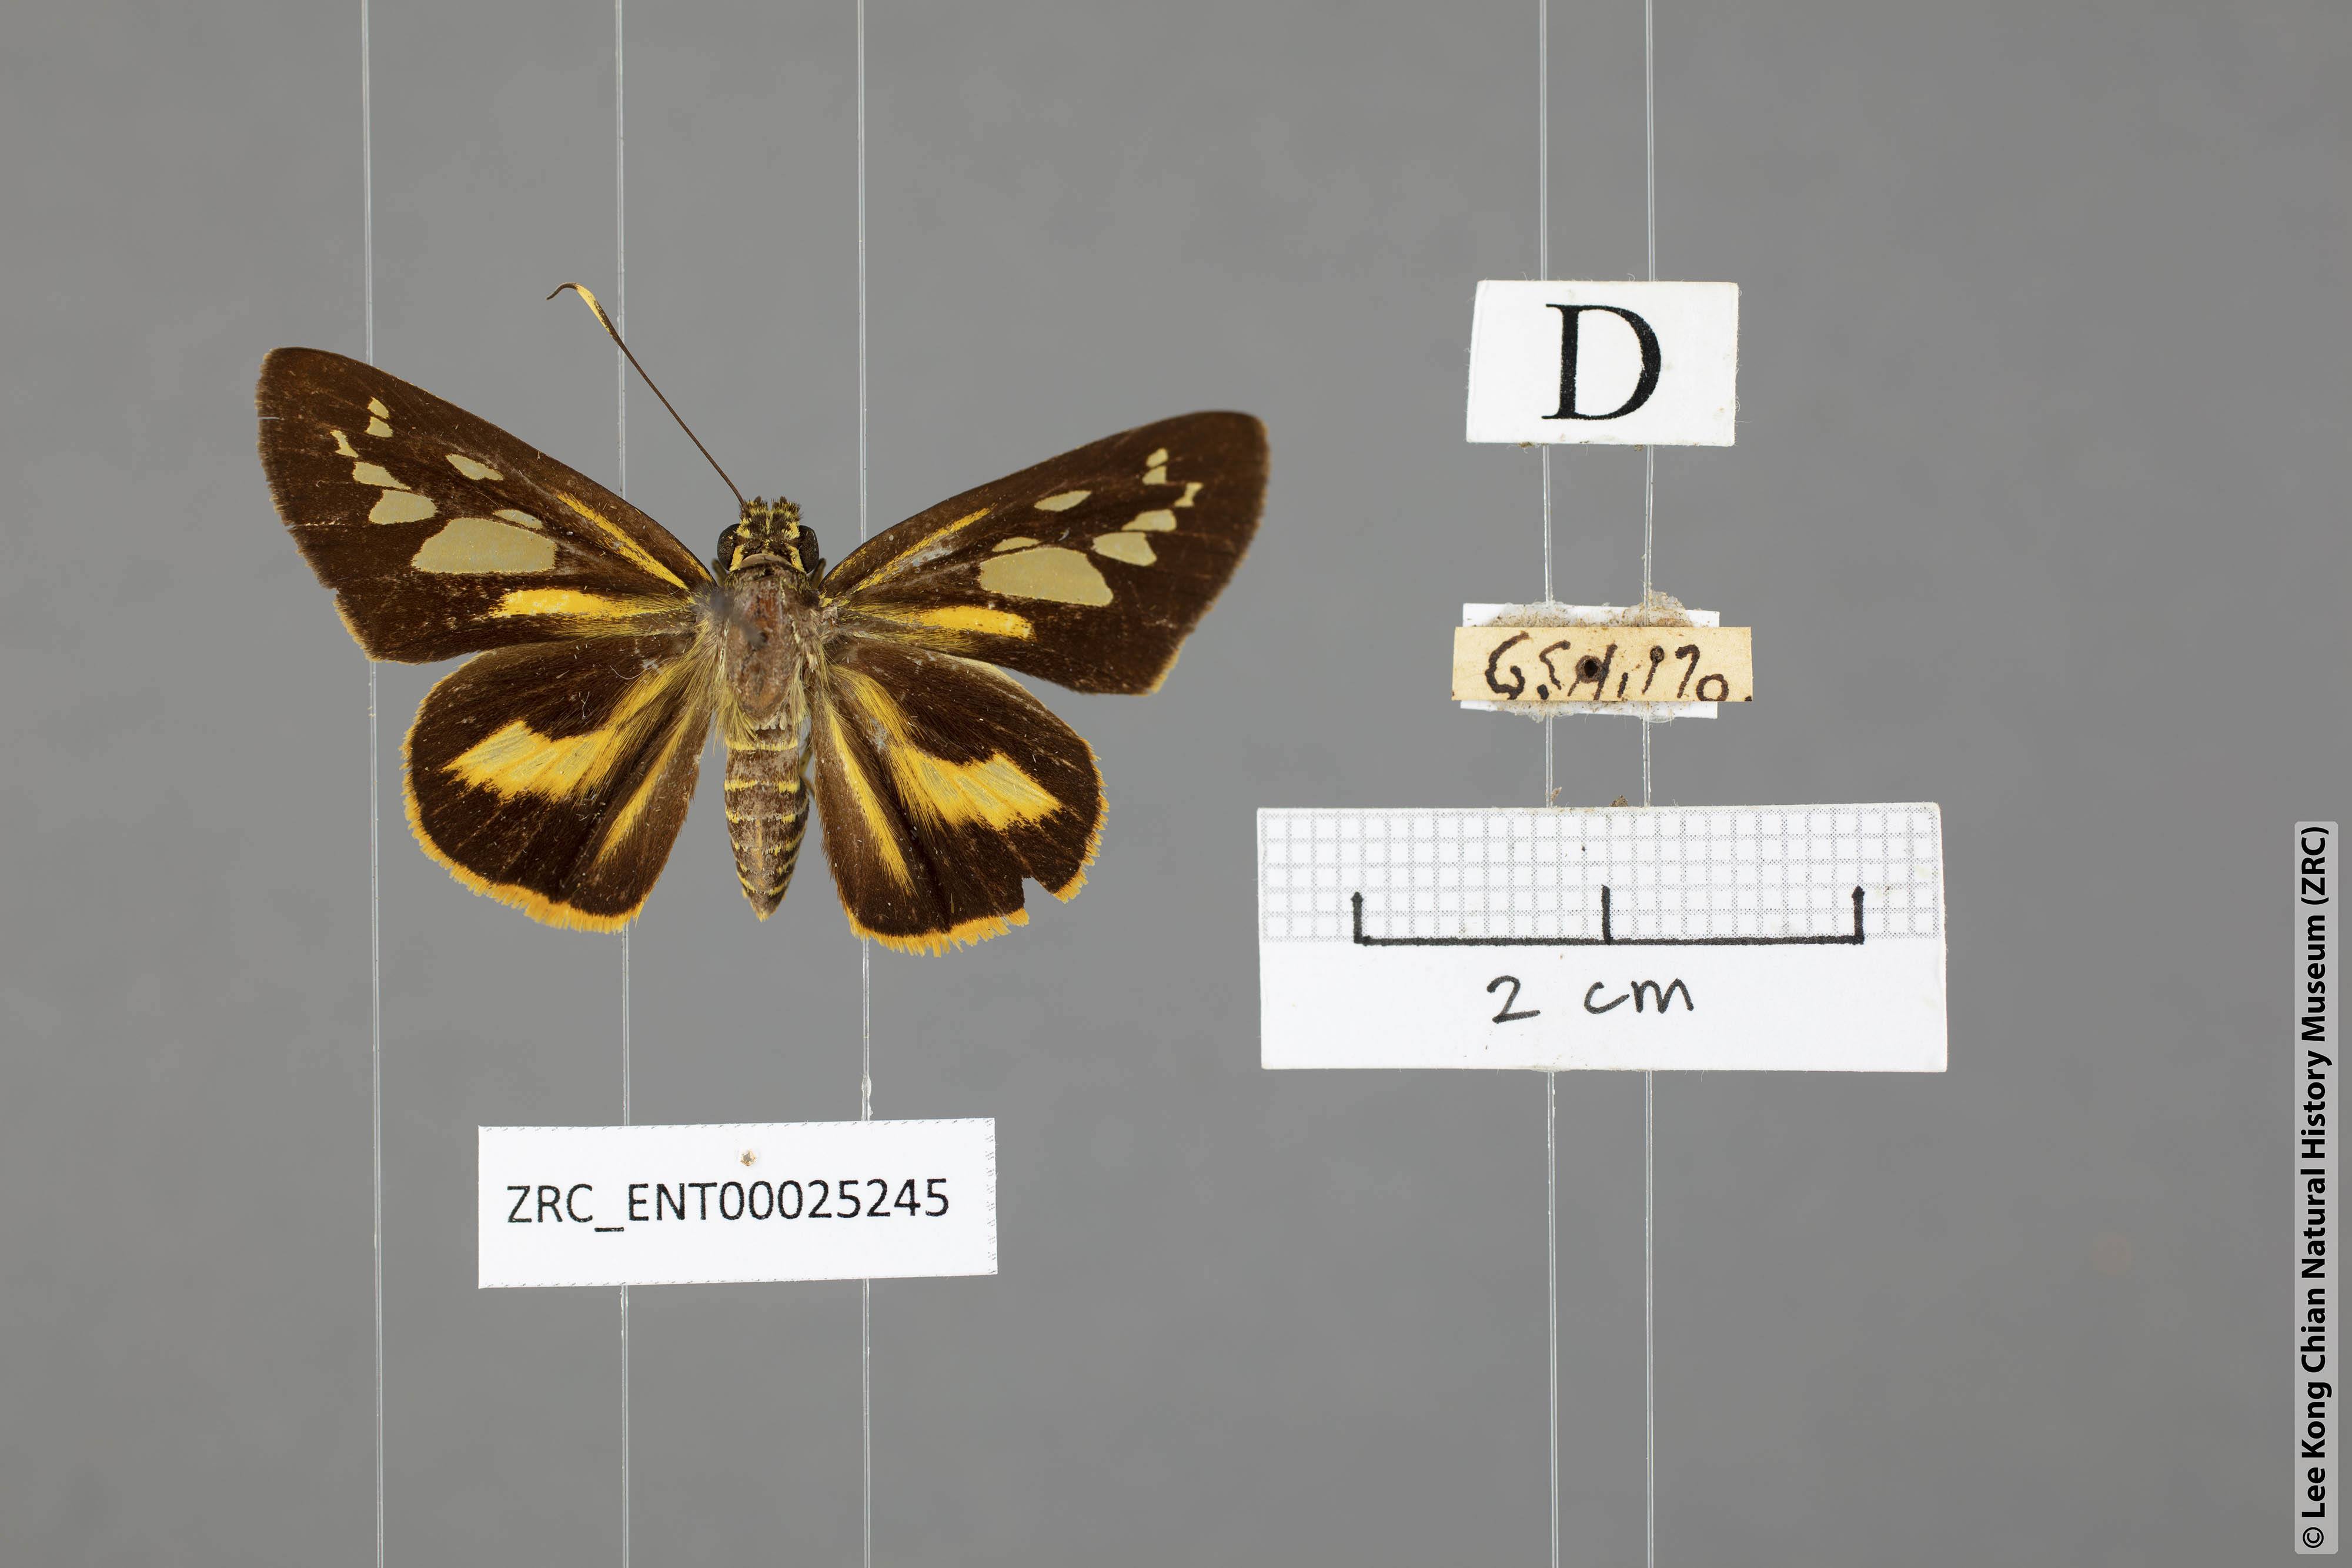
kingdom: Animalia
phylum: Arthropoda
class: Insecta
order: Lepidoptera
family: Hesperiidae
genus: Pyroneura
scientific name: Pyroneura latoia
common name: Yellow vein lancer
